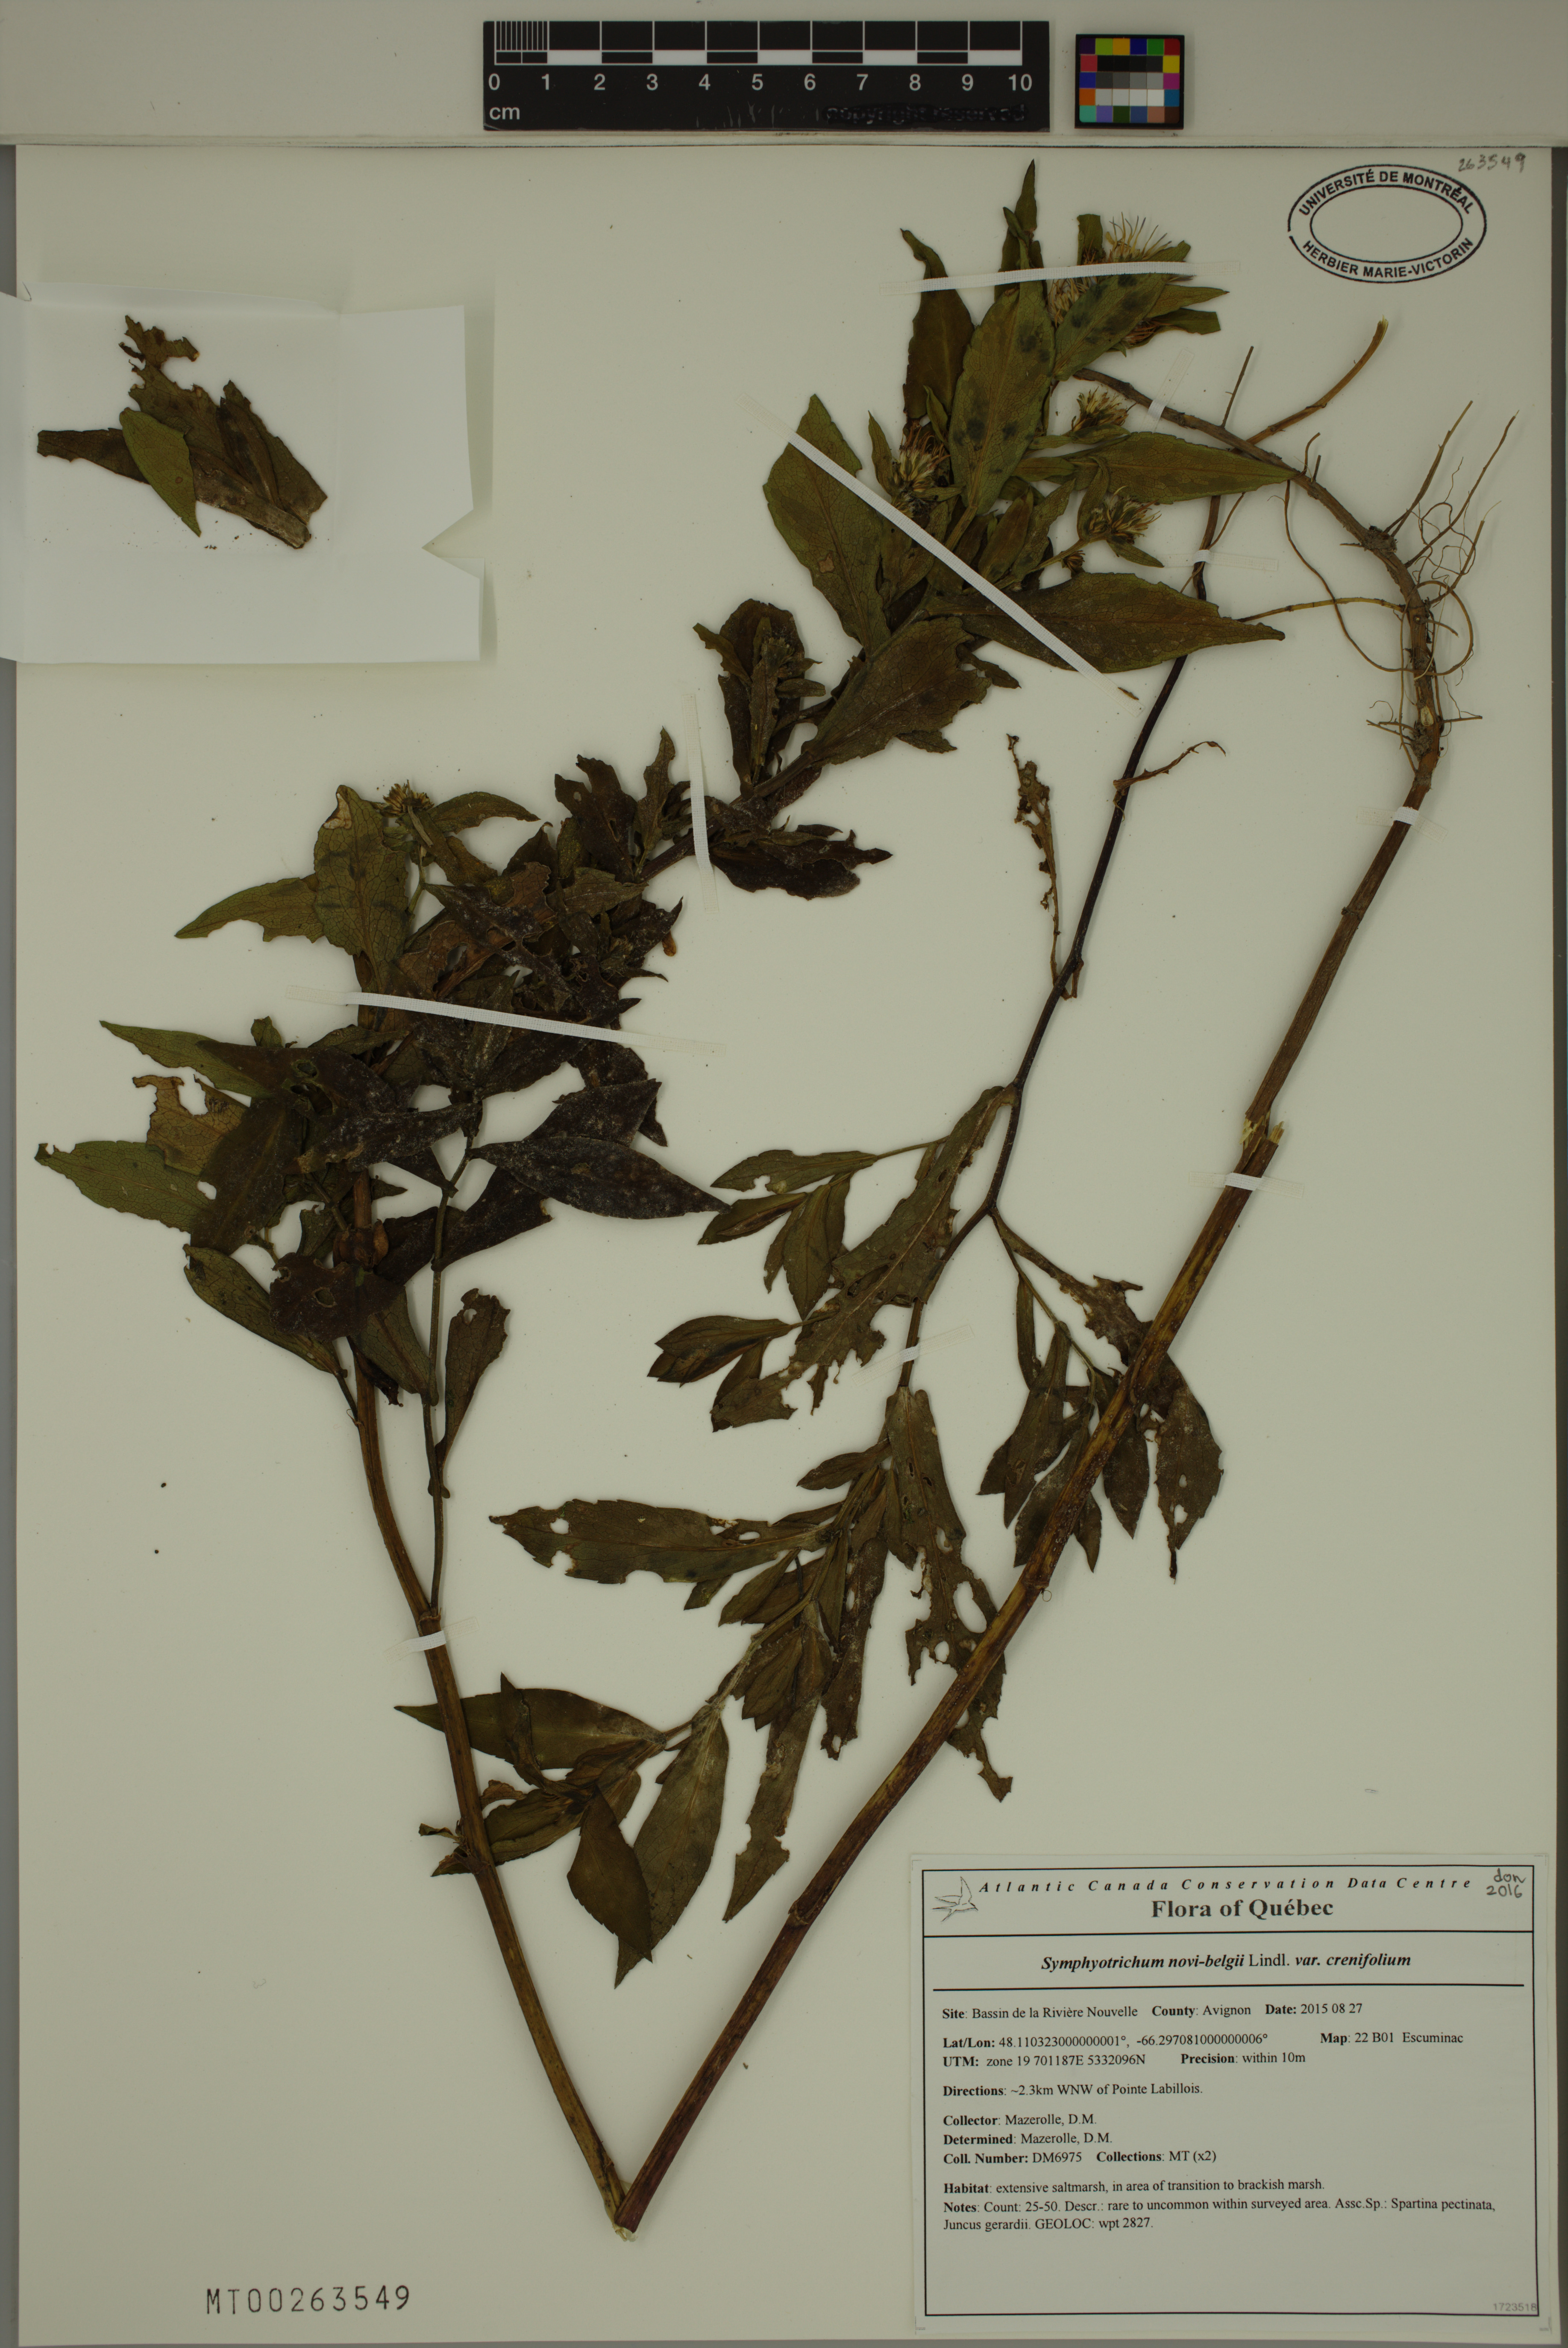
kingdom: Plantae
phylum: Tracheophyta
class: Magnoliopsida
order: Asterales
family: Asteraceae
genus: Symphyotrichum
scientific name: Symphyotrichum novi-belgii
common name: Michaelmas daisy
